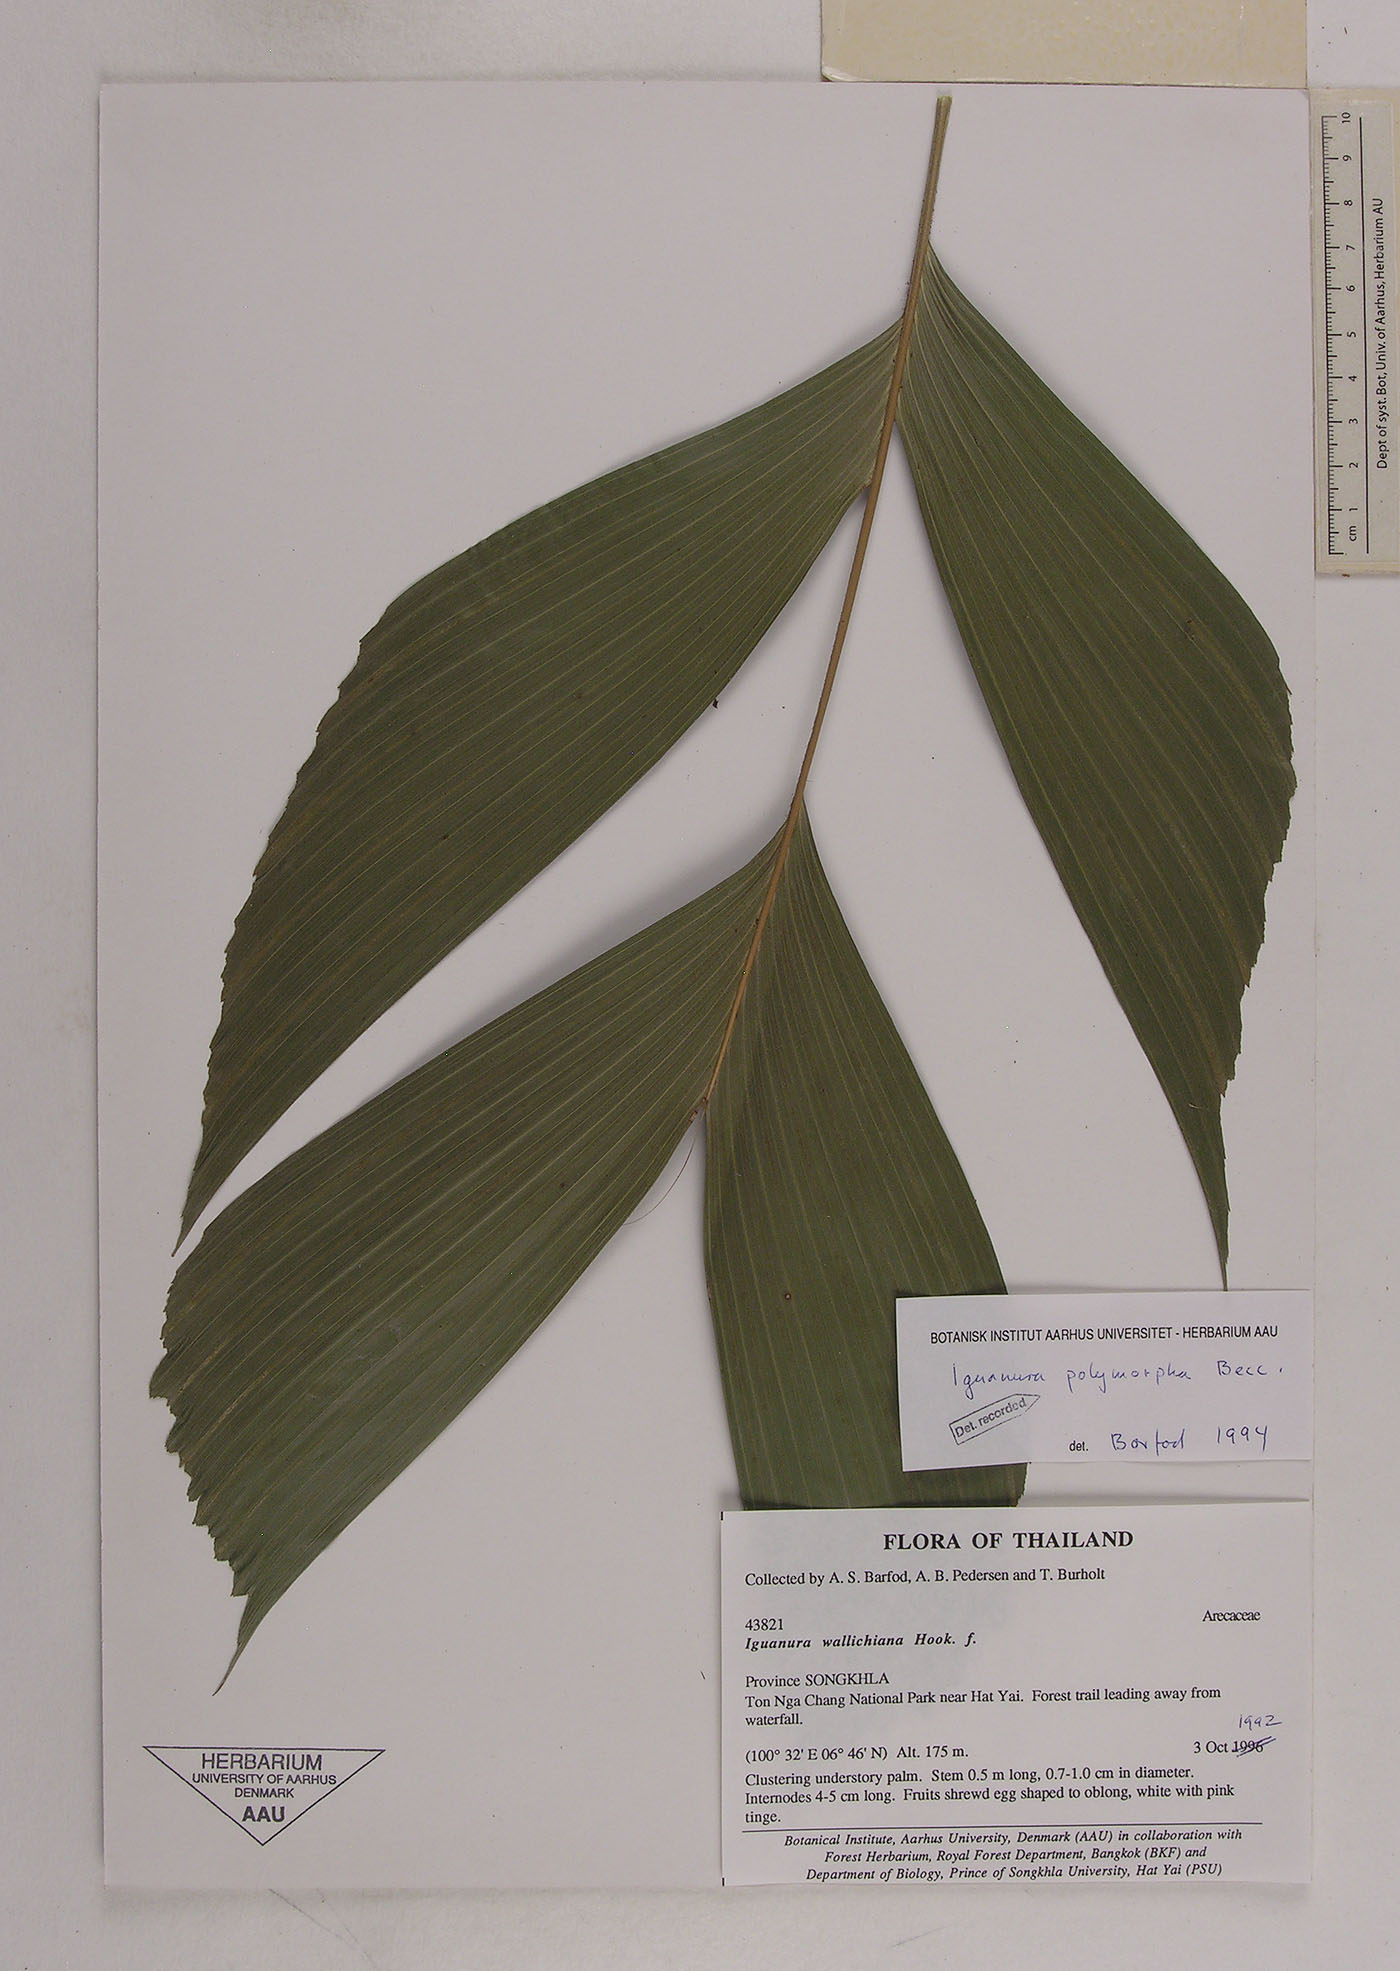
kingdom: Plantae
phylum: Tracheophyta
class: Liliopsida
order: Arecales
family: Arecaceae
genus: Iguanura
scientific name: Iguanura polymorpha
